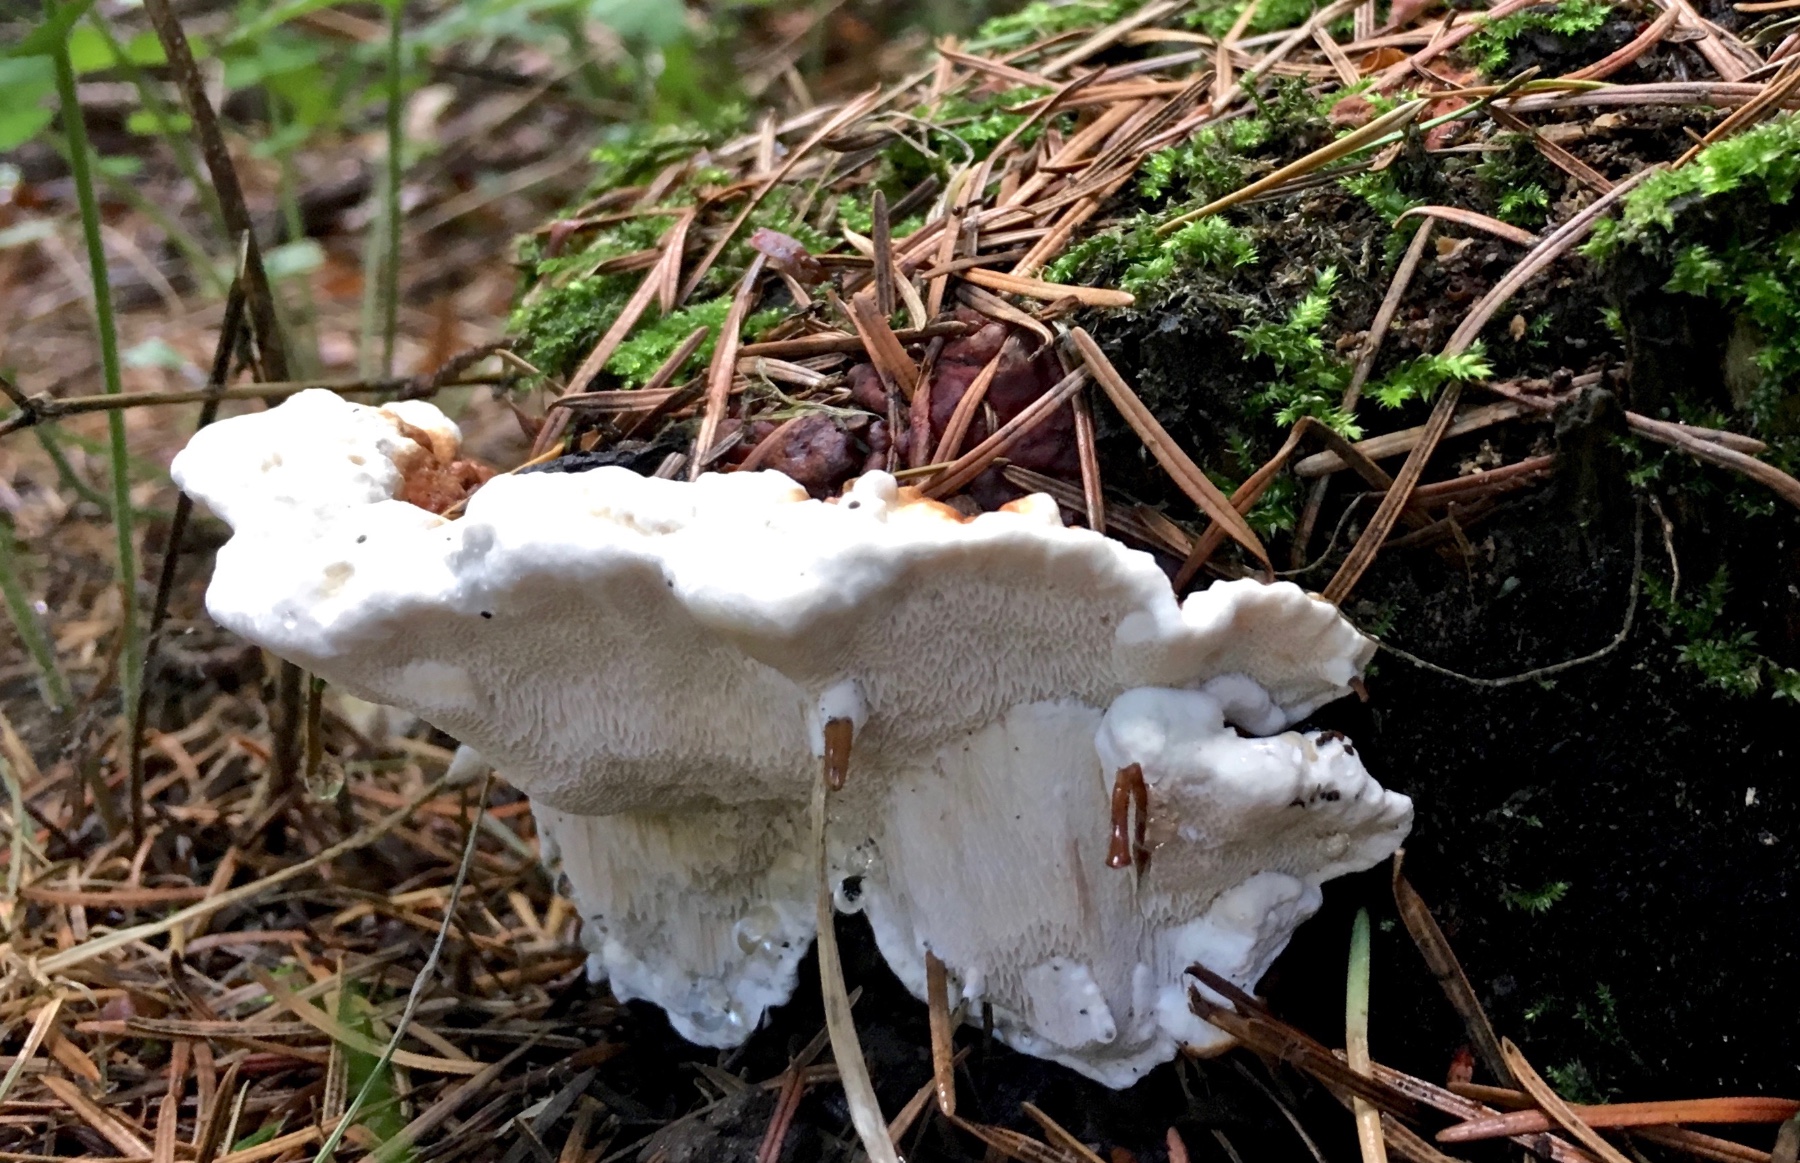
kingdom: Fungi
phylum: Basidiomycota
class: Agaricomycetes
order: Russulales
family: Bondarzewiaceae
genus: Heterobasidion
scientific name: Heterobasidion annosum
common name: almindelig rodfordærver
